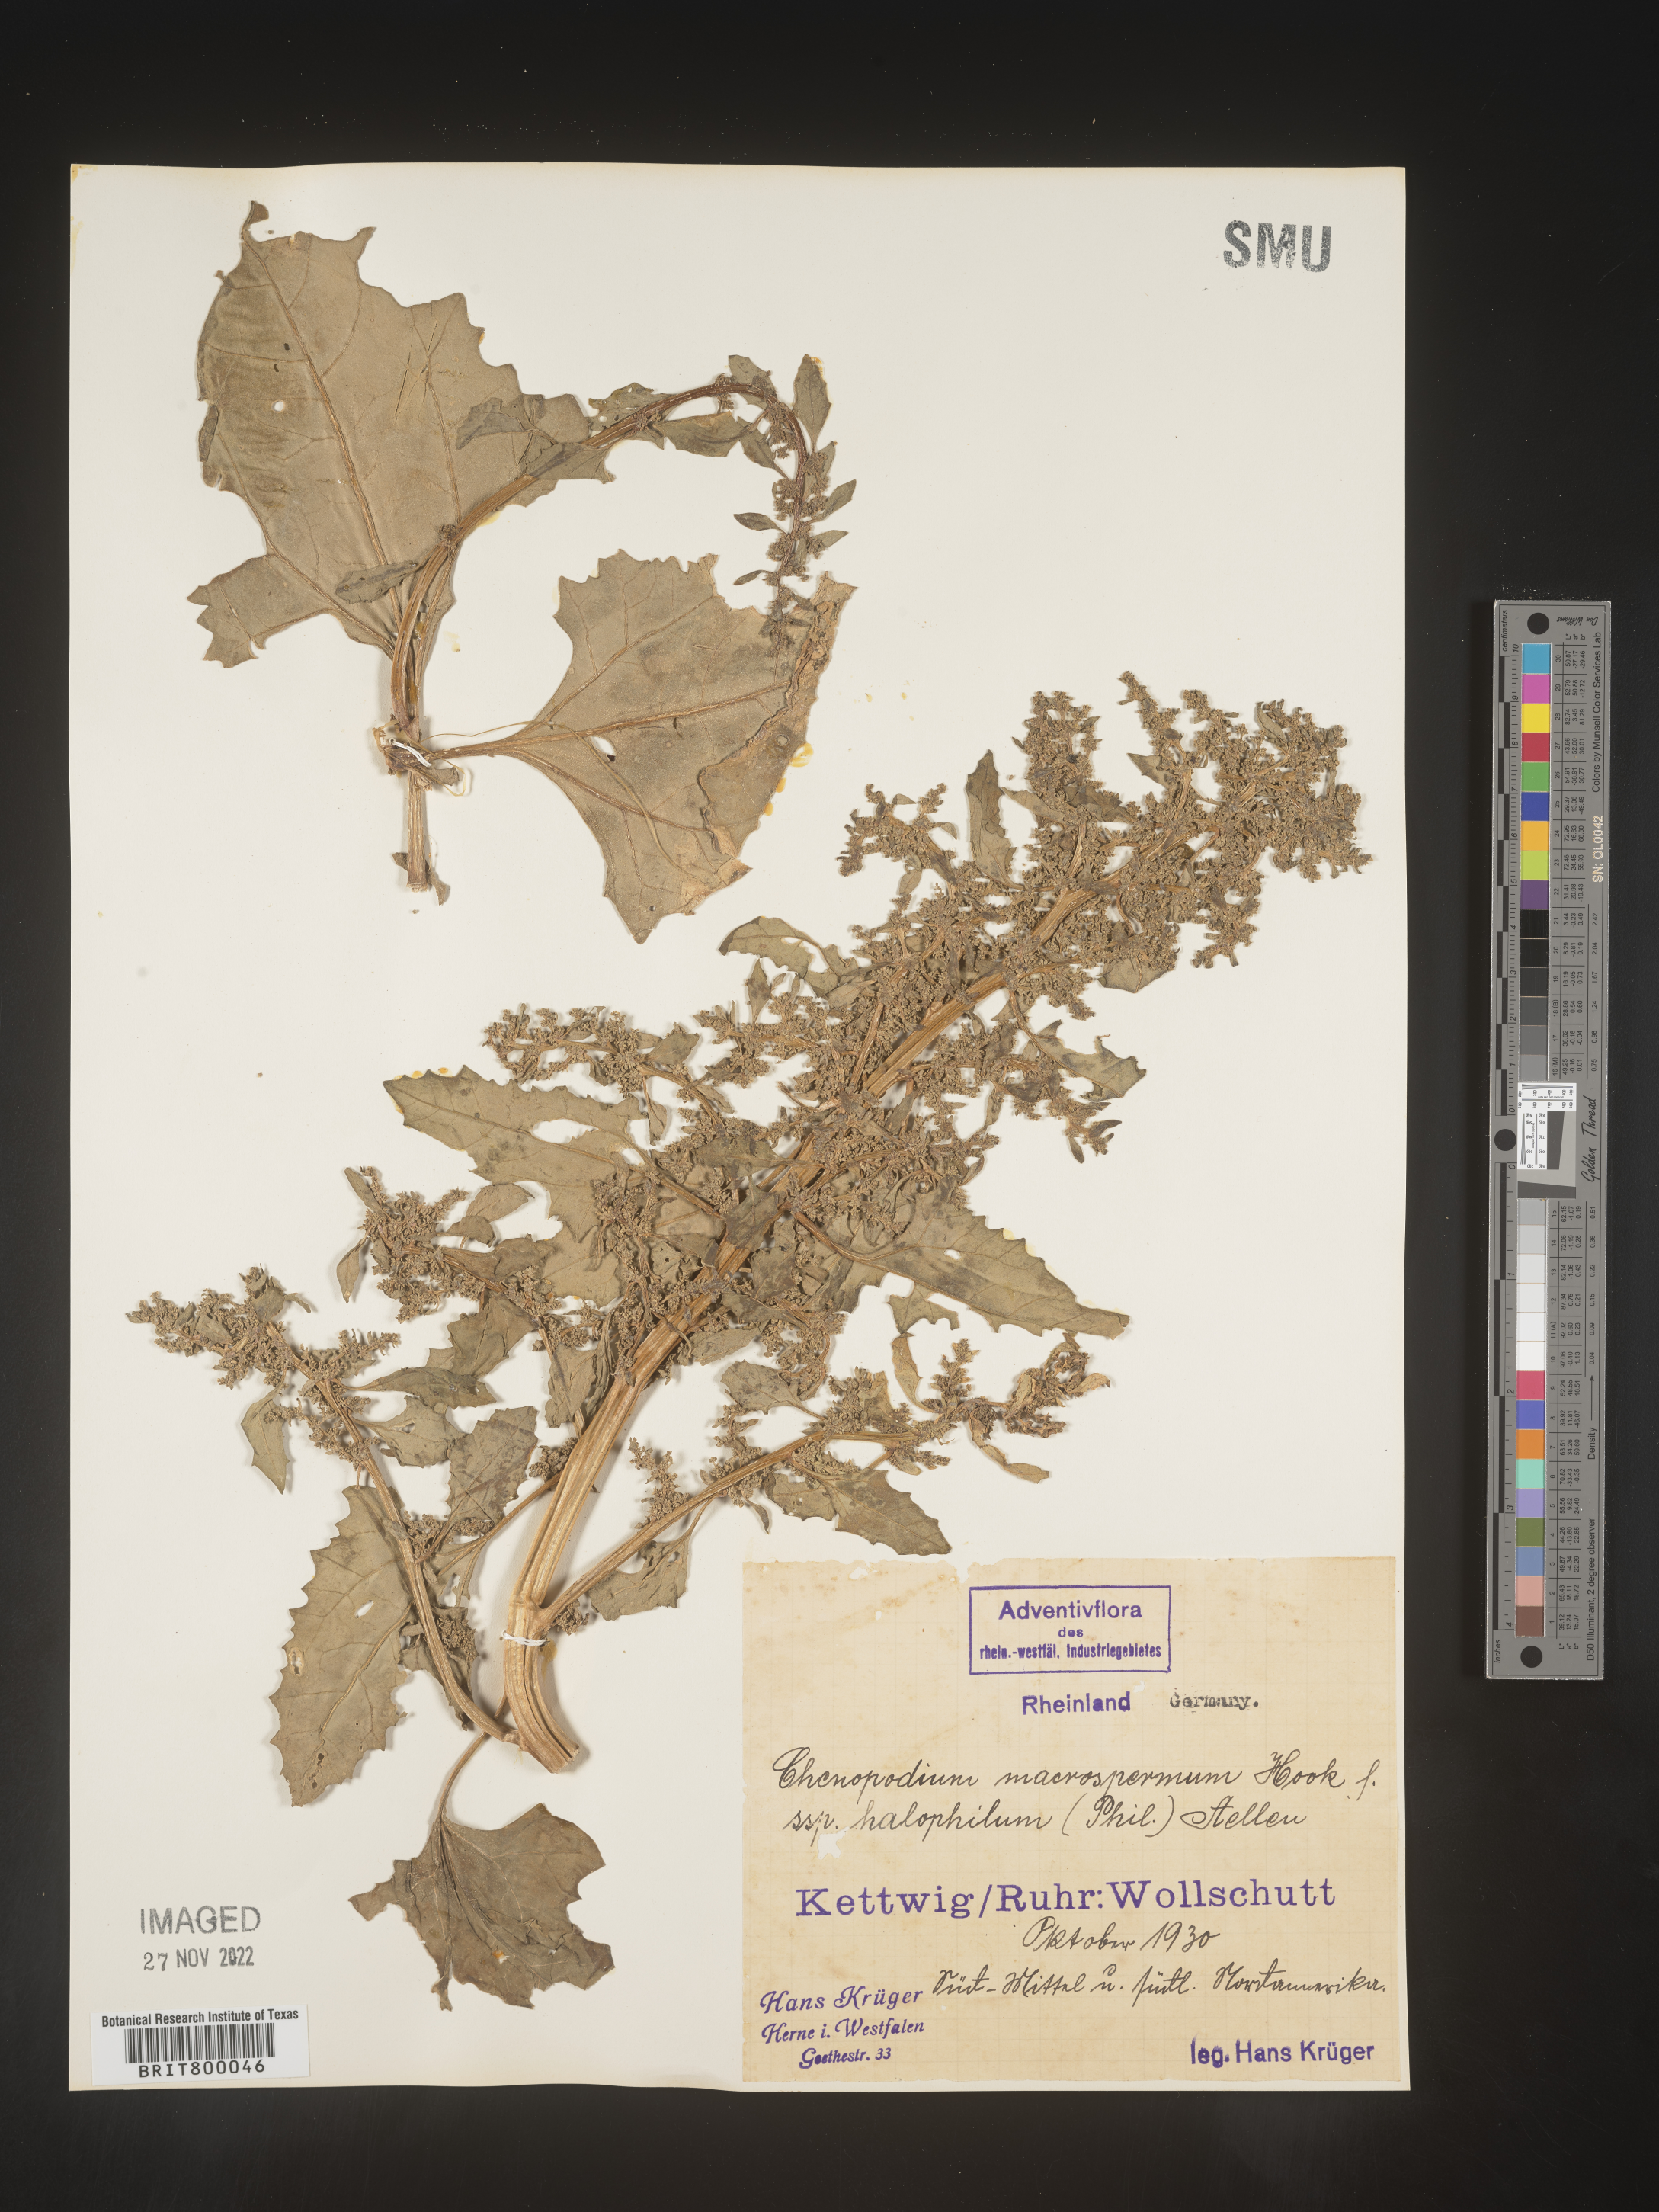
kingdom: Plantae
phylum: Tracheophyta
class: Magnoliopsida
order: Caryophyllales
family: Amaranthaceae
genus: Chenopodium
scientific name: Chenopodium
